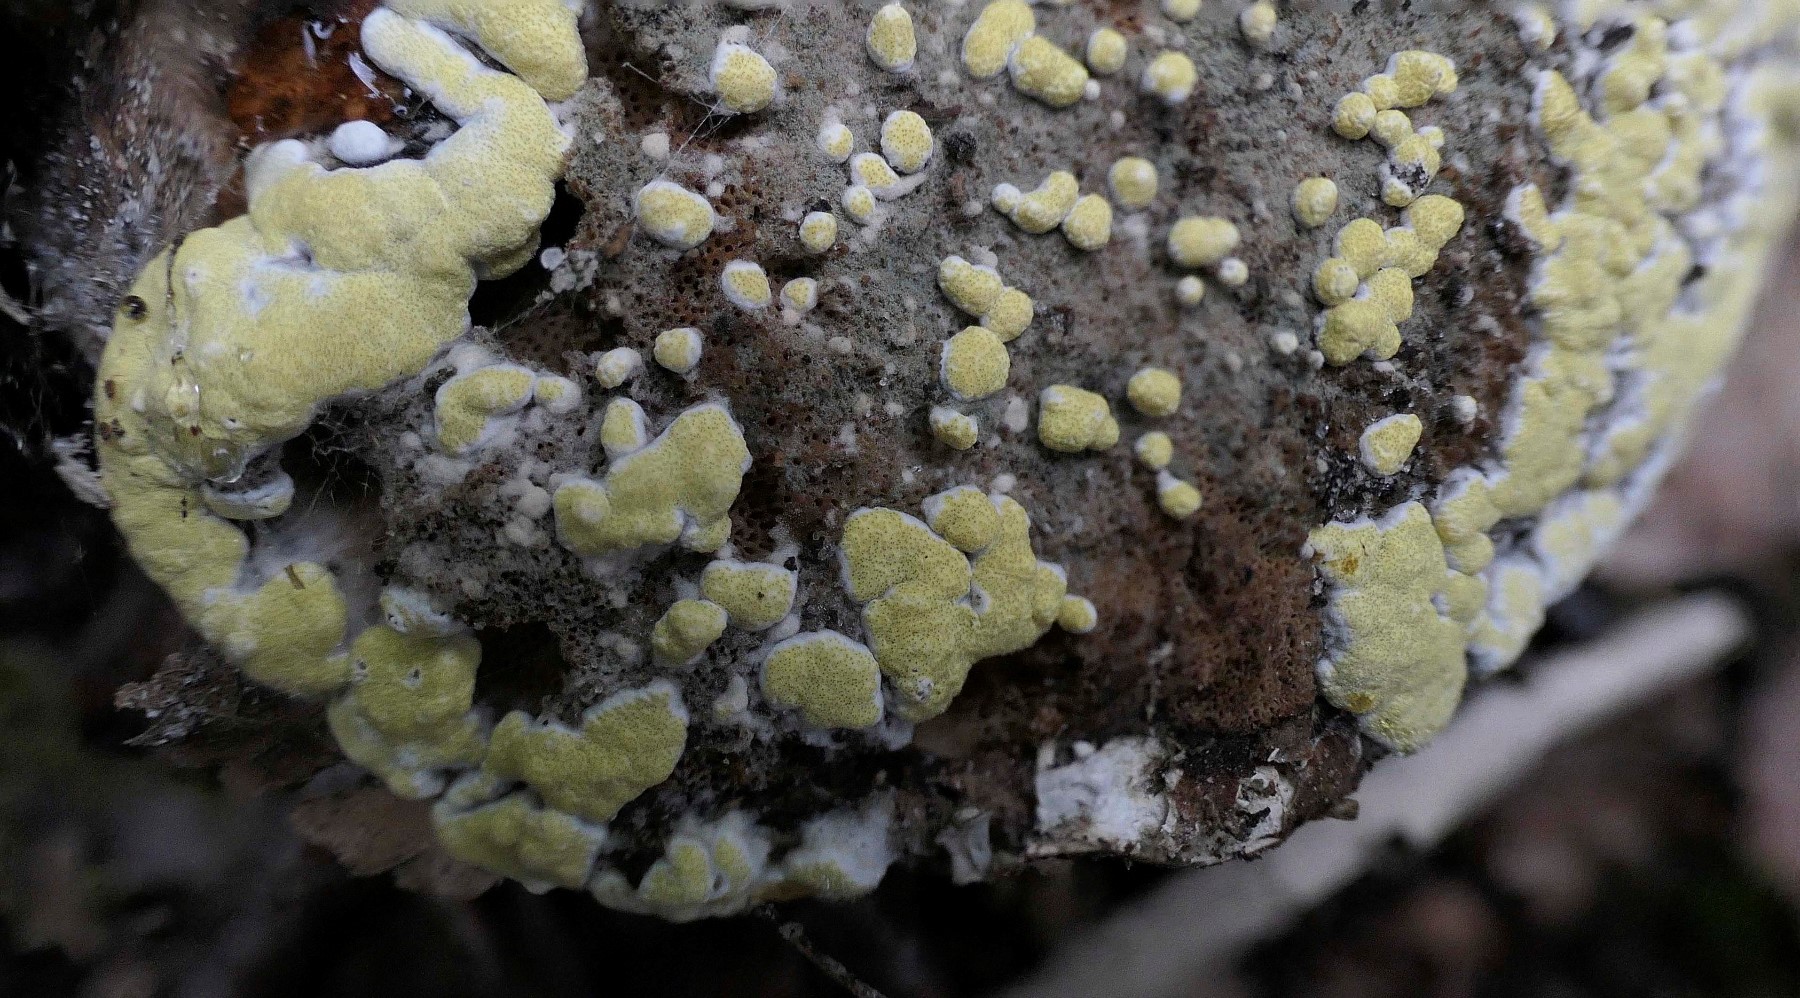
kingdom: Fungi
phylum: Ascomycota
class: Sordariomycetes
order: Hypocreales
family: Hypocreaceae
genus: Trichoderma
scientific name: Trichoderma pulvinatum
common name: snyltende kødkerne
